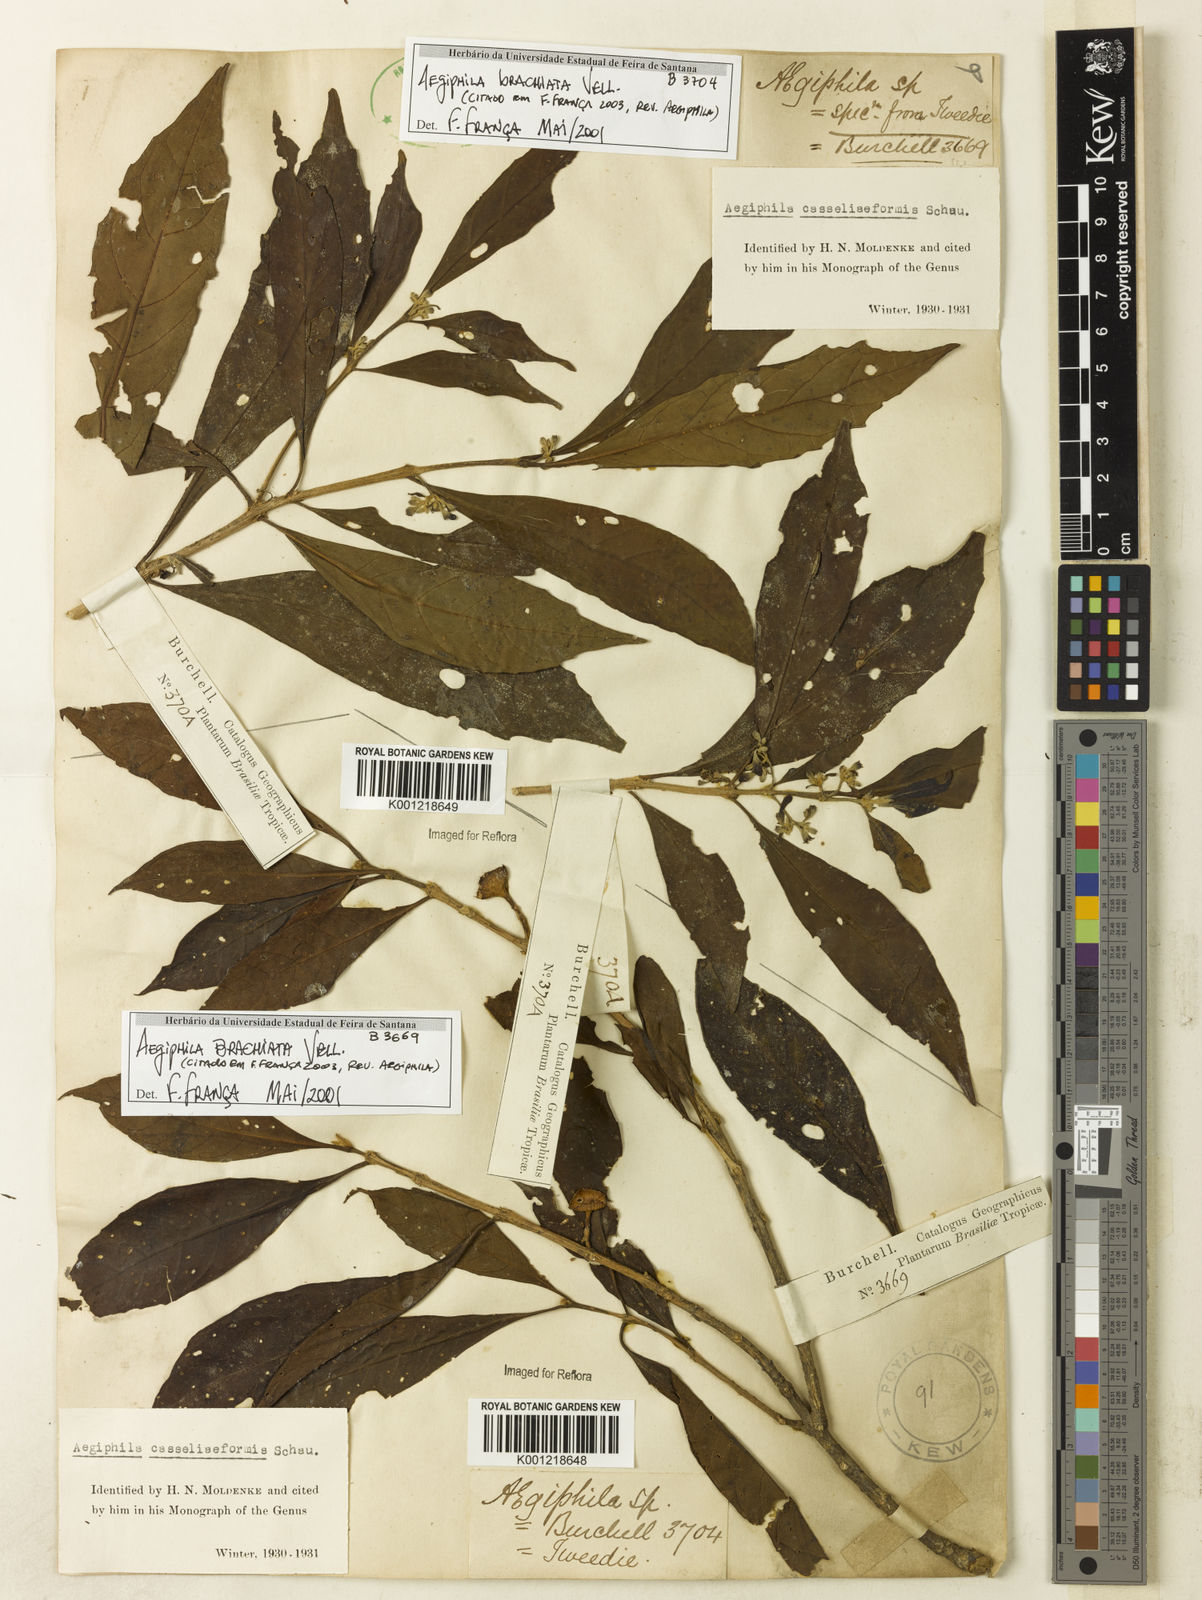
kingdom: Plantae
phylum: Tracheophyta
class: Magnoliopsida
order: Lamiales
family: Lamiaceae
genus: Aegiphila
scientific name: Aegiphila brachiata
